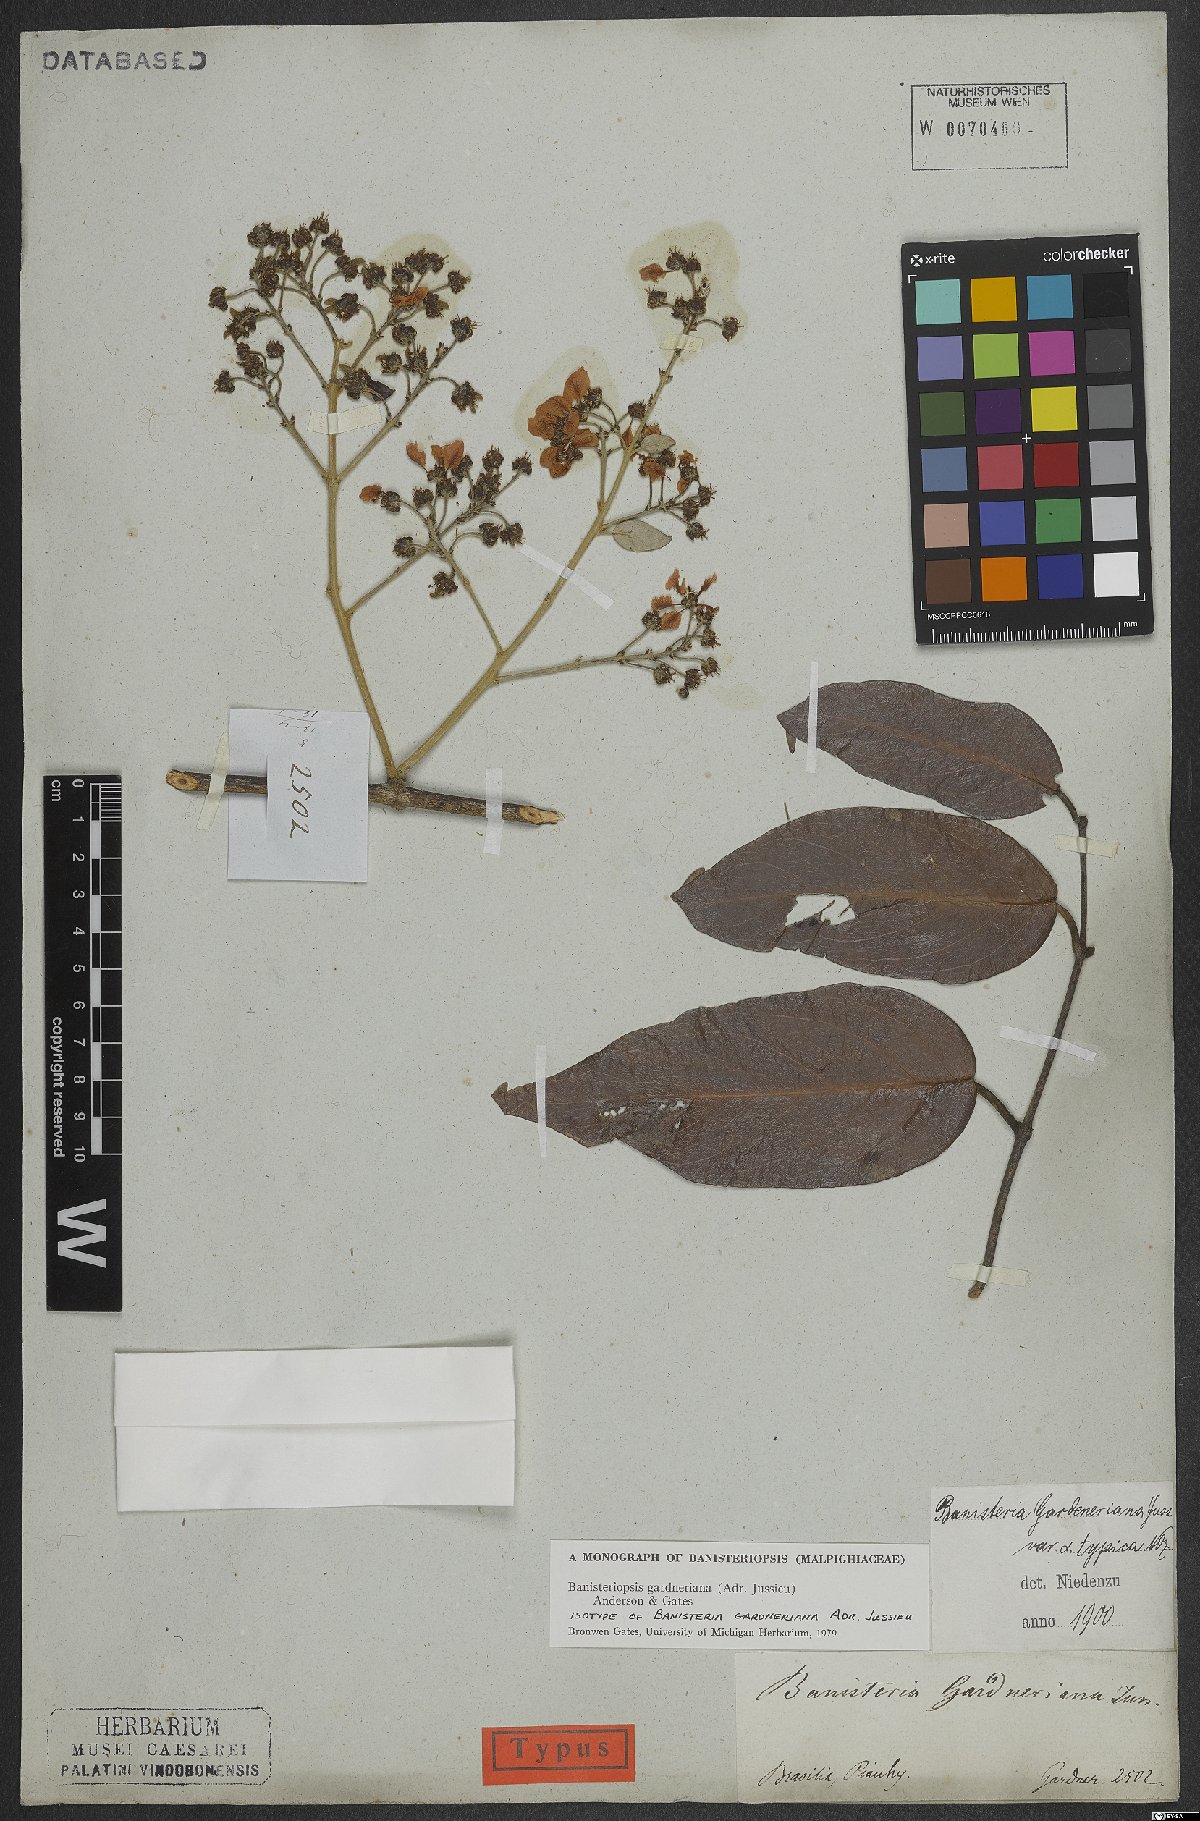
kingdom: Plantae
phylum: Tracheophyta
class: Magnoliopsida
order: Malpighiales
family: Malpighiaceae
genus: Banisteriopsis
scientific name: Banisteriopsis gardneriana
